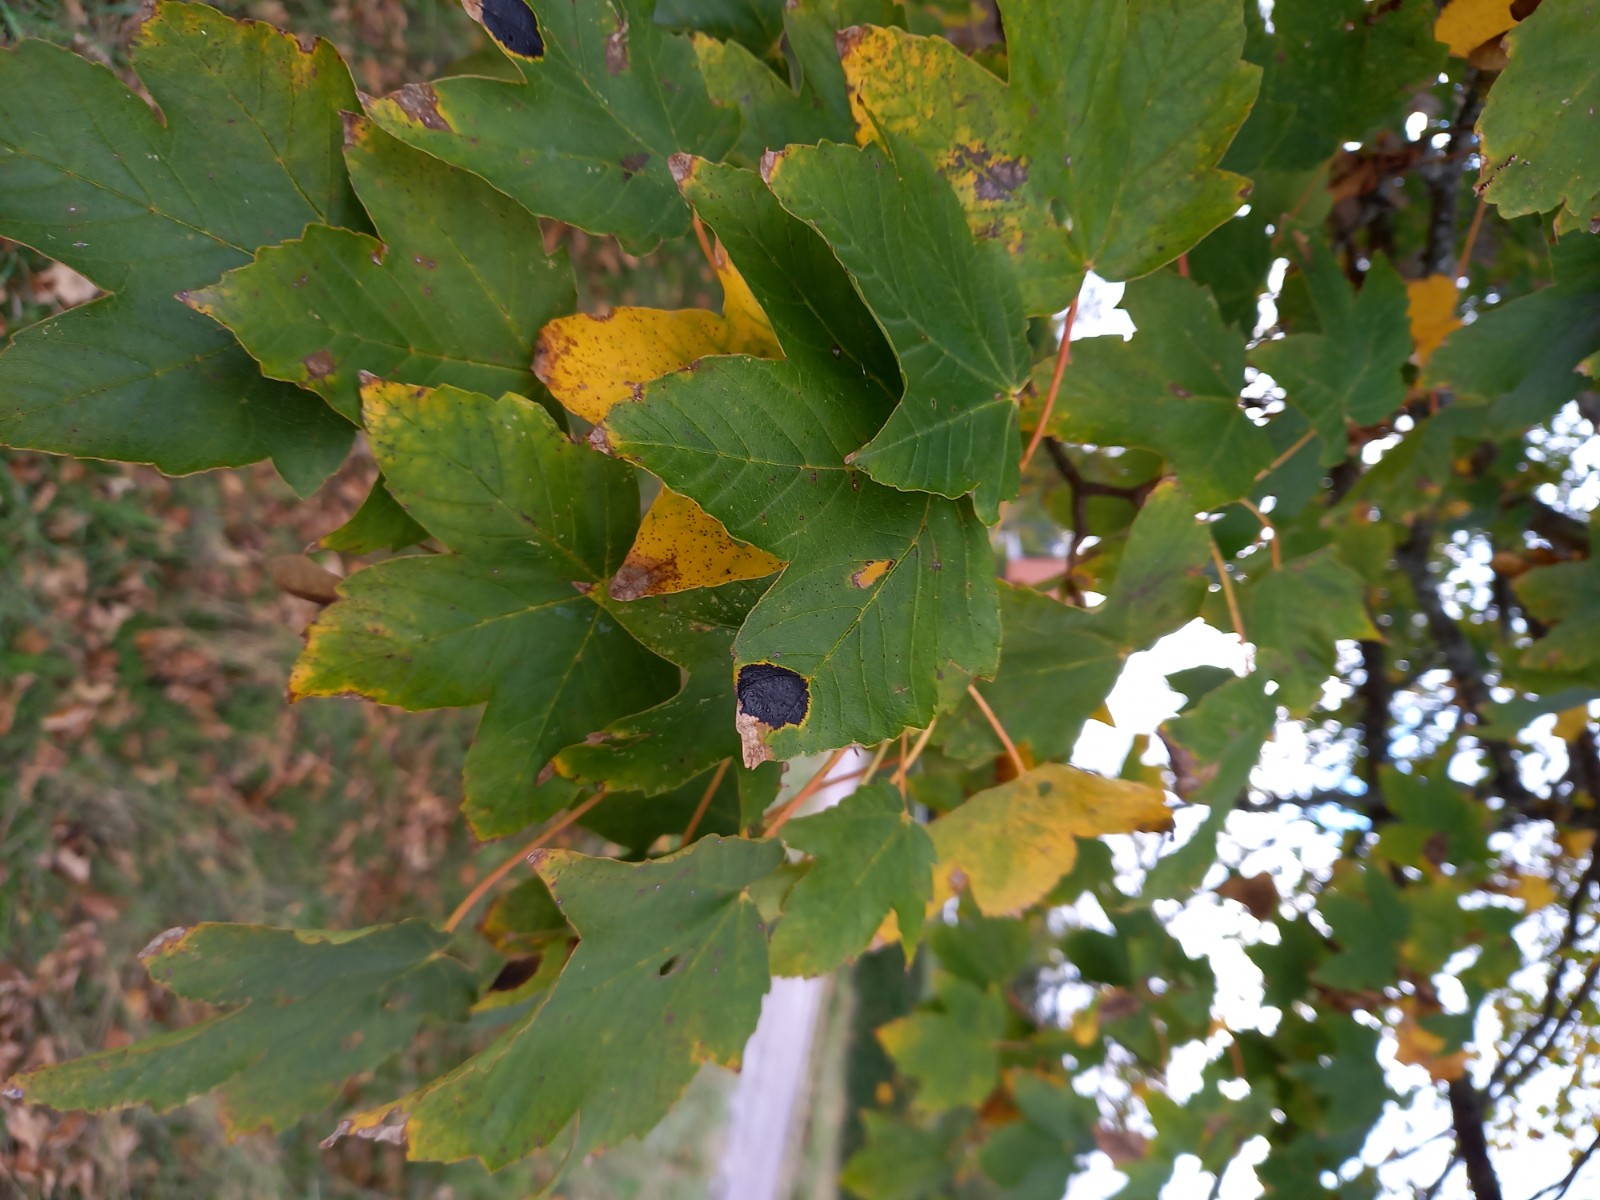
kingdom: Fungi
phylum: Ascomycota
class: Leotiomycetes
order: Rhytismatales
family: Rhytismataceae
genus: Rhytisma
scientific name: Rhytisma acerinum
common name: ahorn-rynkeplet
